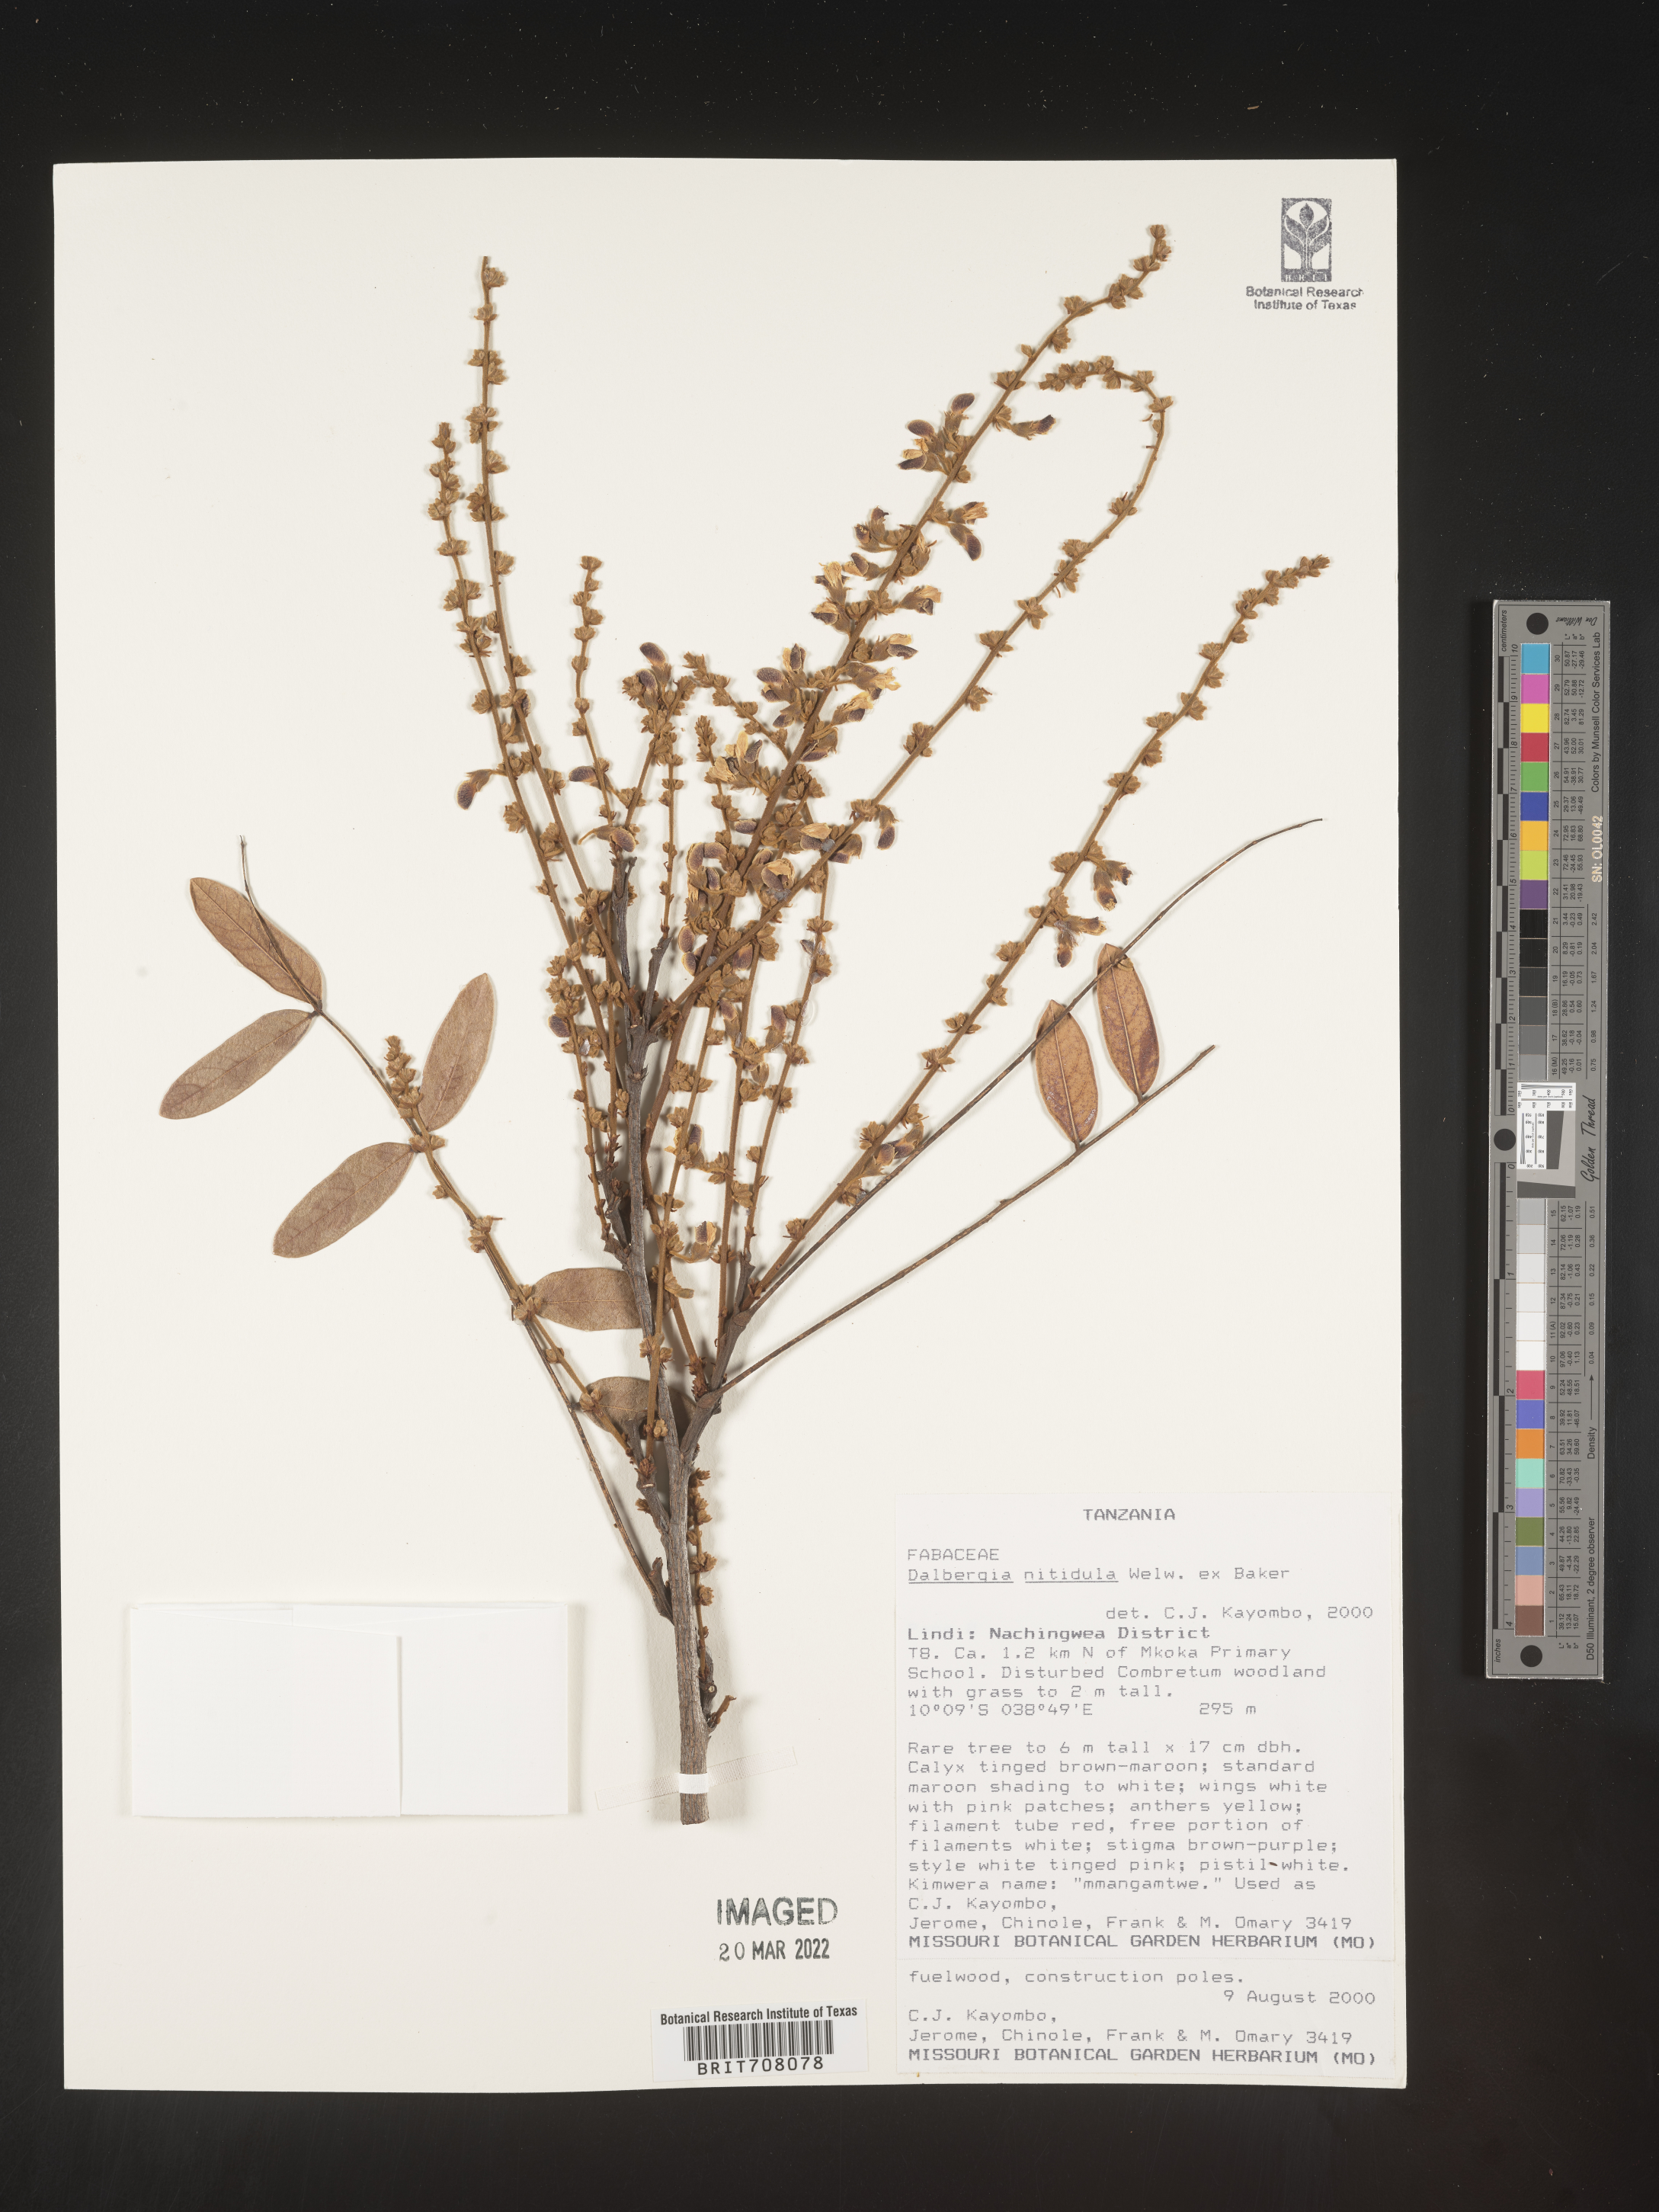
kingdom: Plantae
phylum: Tracheophyta
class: Magnoliopsida
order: Fabales
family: Fabaceae
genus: Dalbergia
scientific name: Dalbergia
